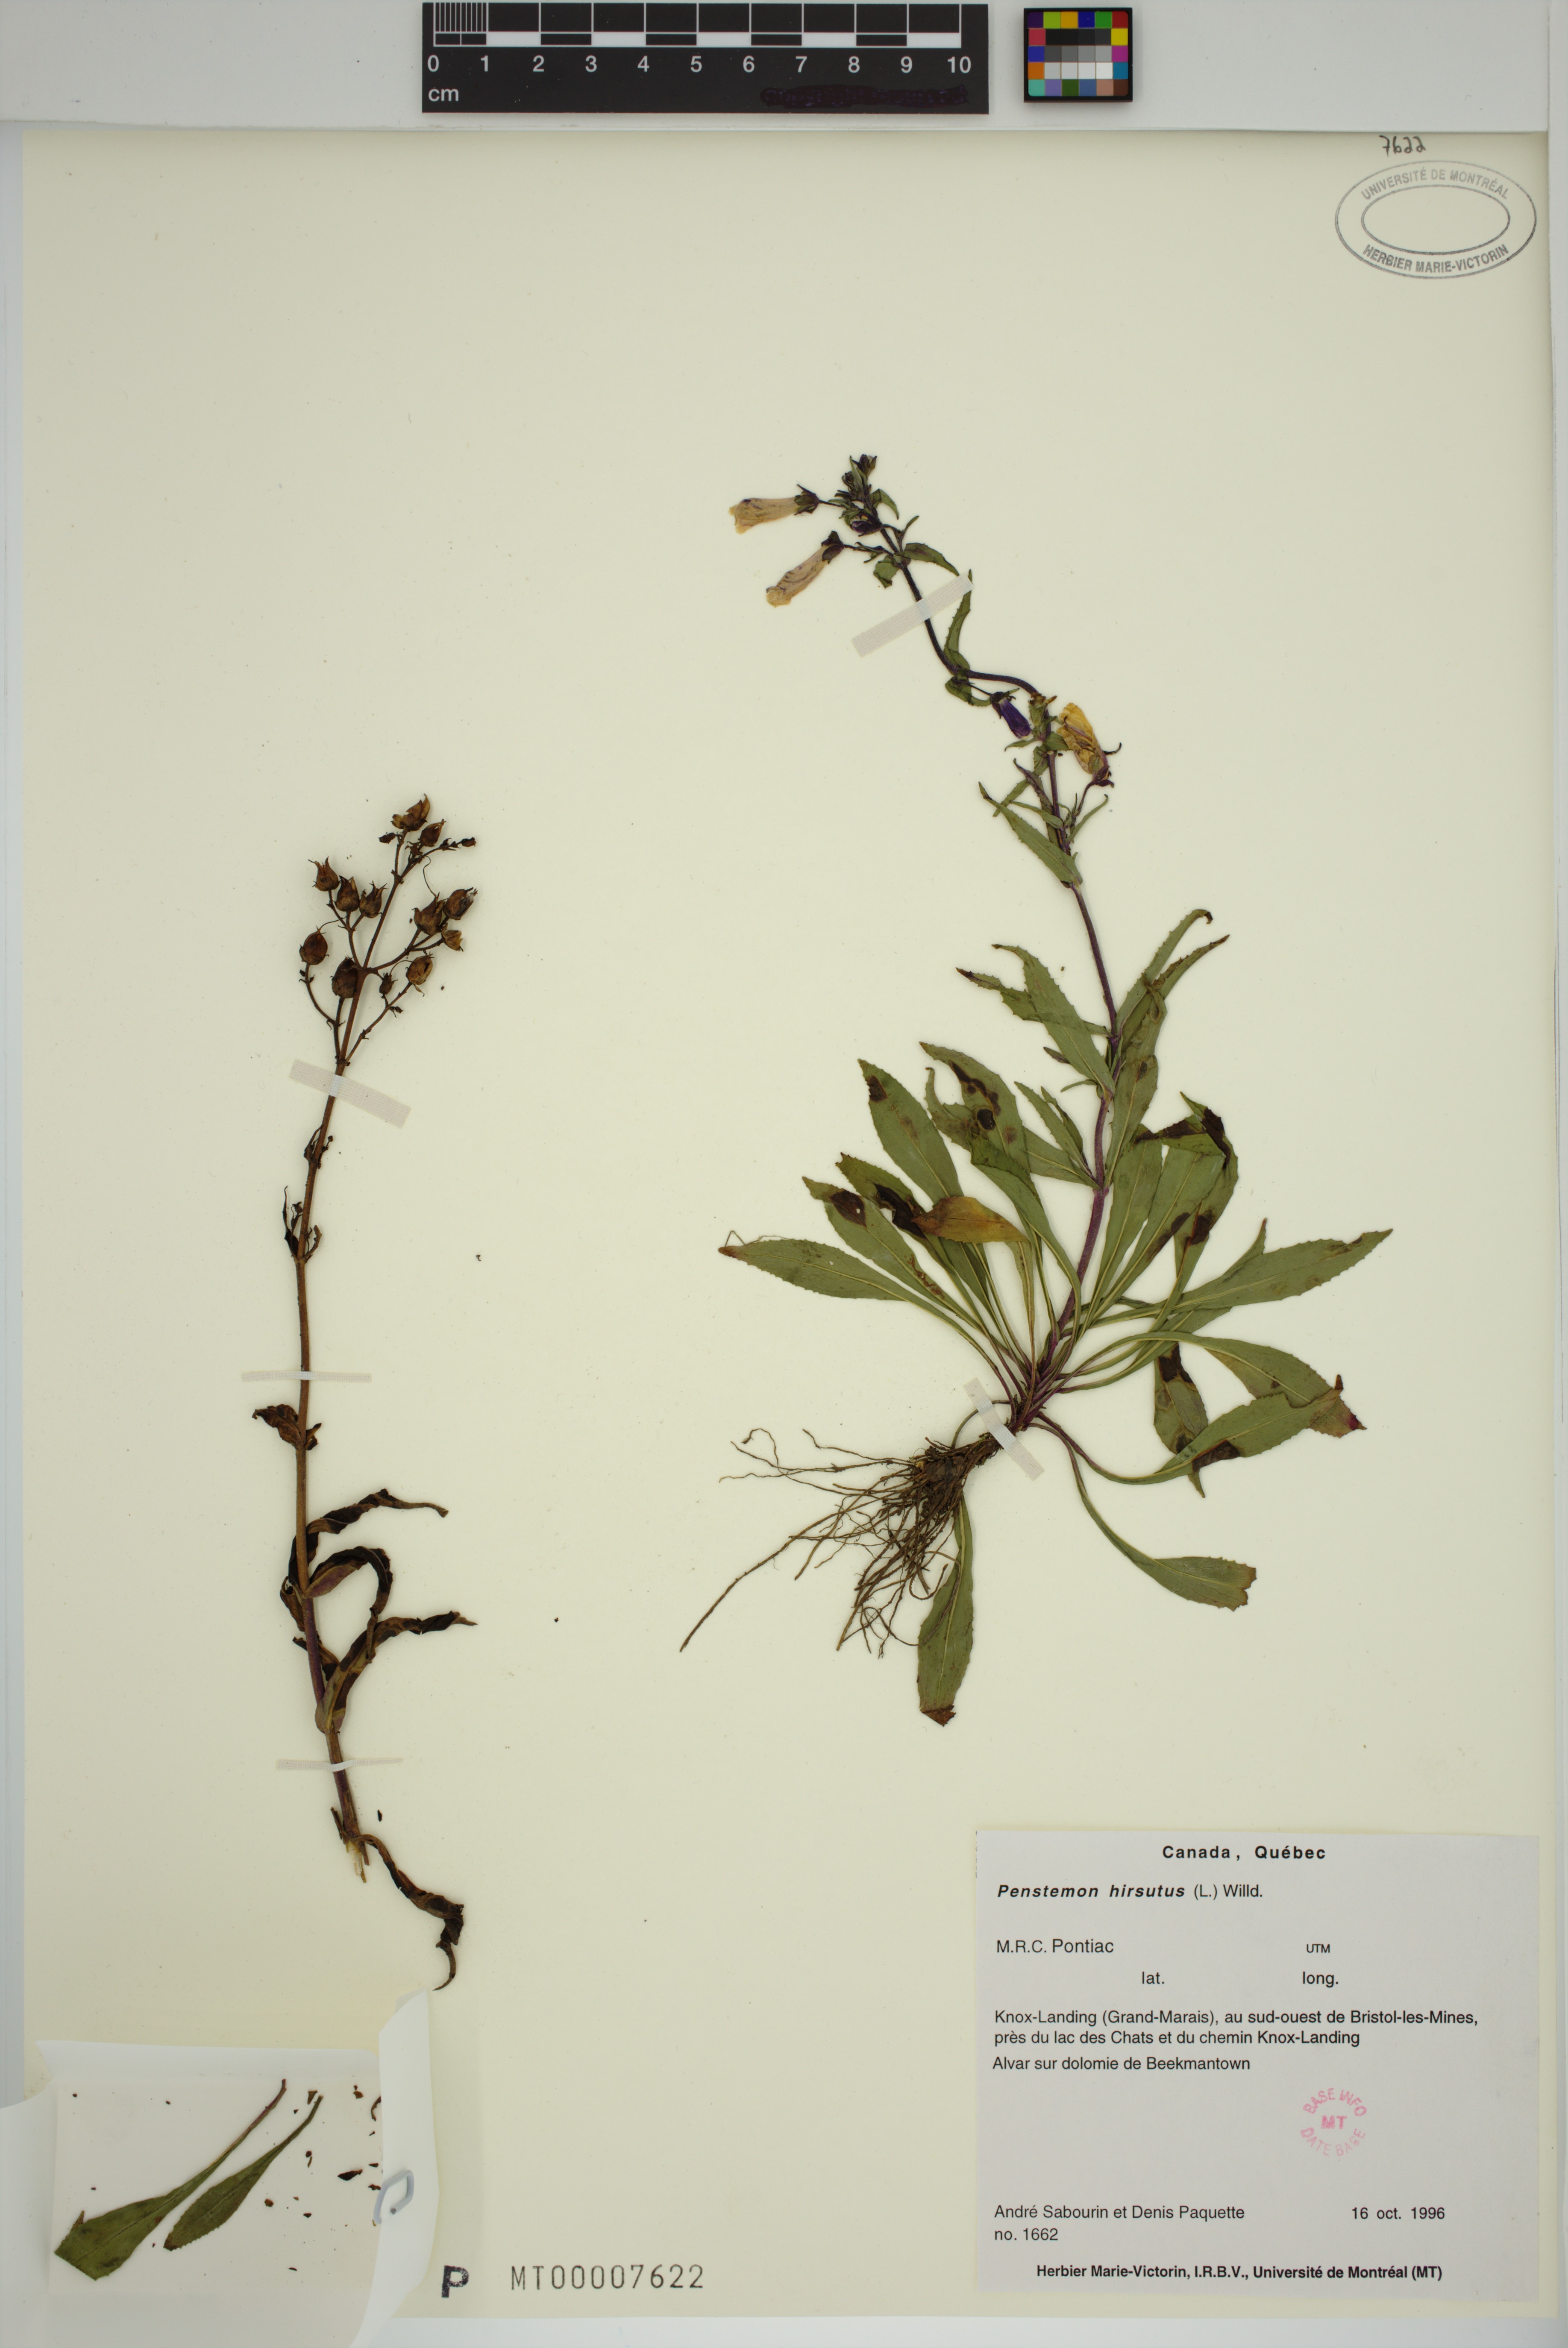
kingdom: Plantae
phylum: Tracheophyta
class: Magnoliopsida
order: Lamiales
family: Plantaginaceae
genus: Penstemon
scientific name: Penstemon hirsutus
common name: Hairy beardtongue
